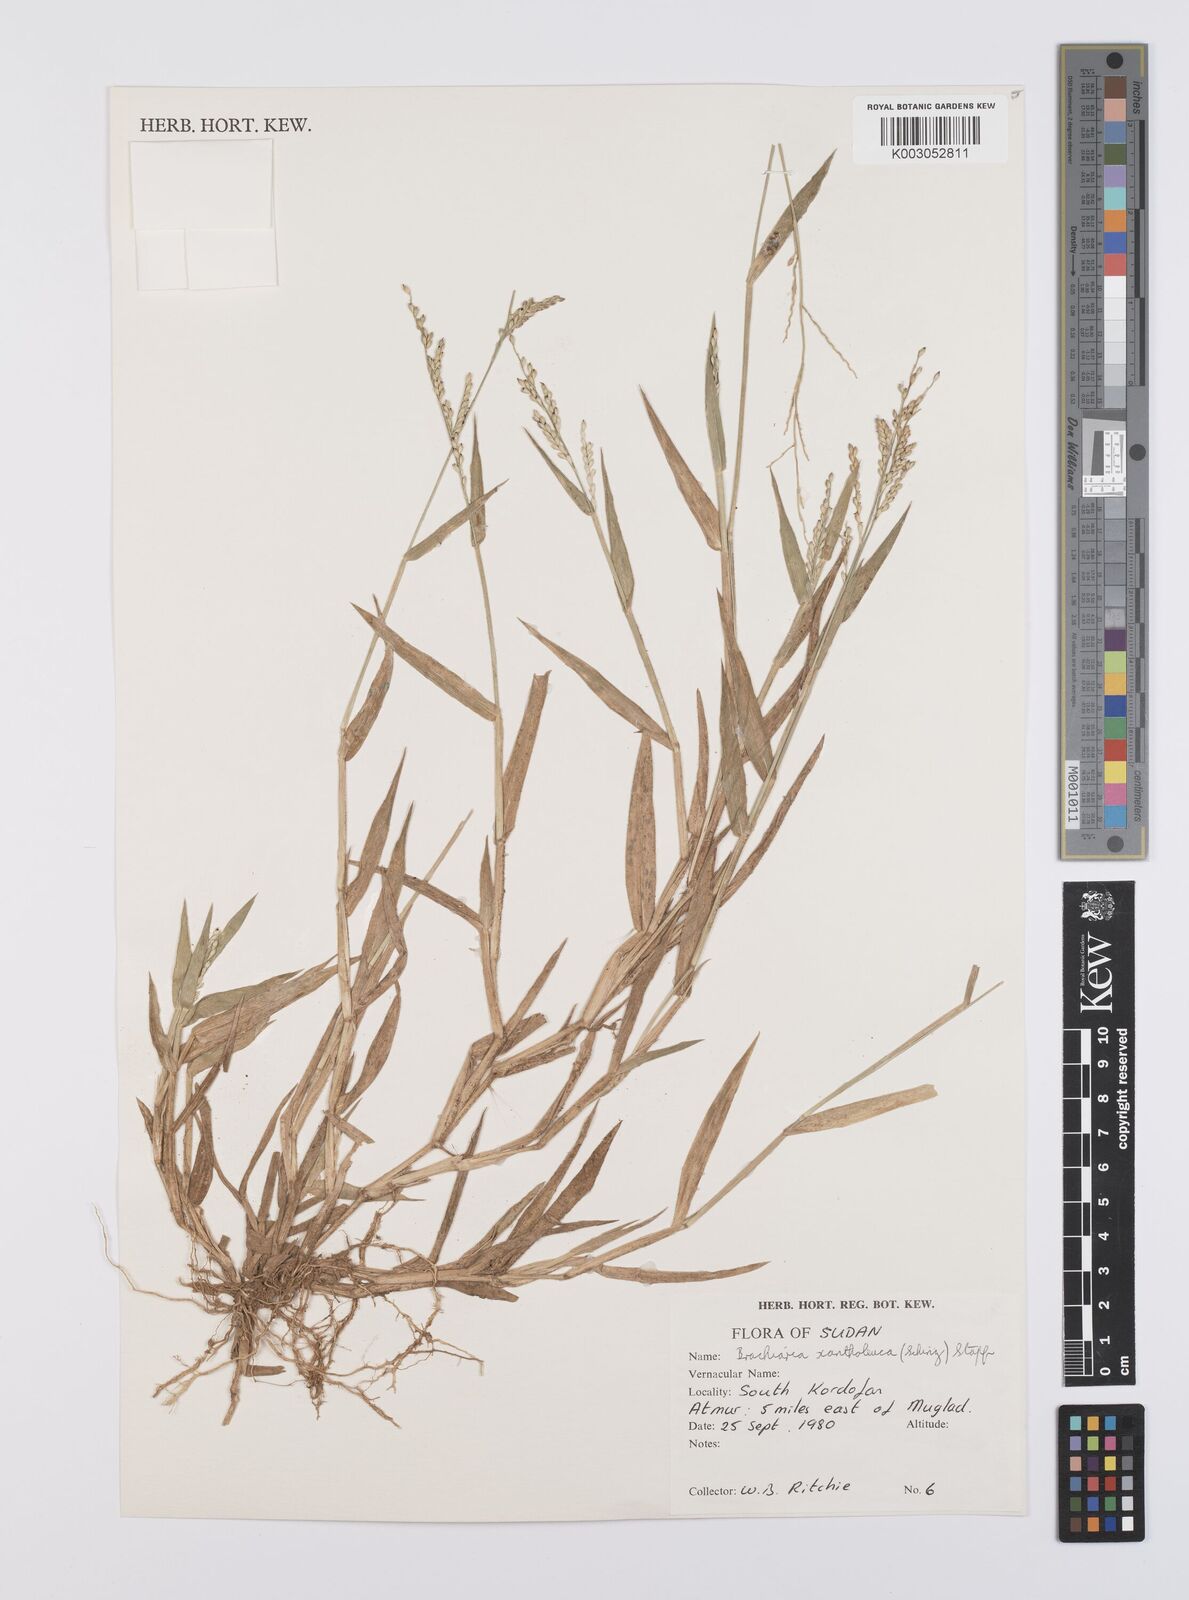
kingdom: Plantae
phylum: Tracheophyta
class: Liliopsida
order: Poales
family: Poaceae
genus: Urochloa
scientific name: Urochloa xantholeuca
